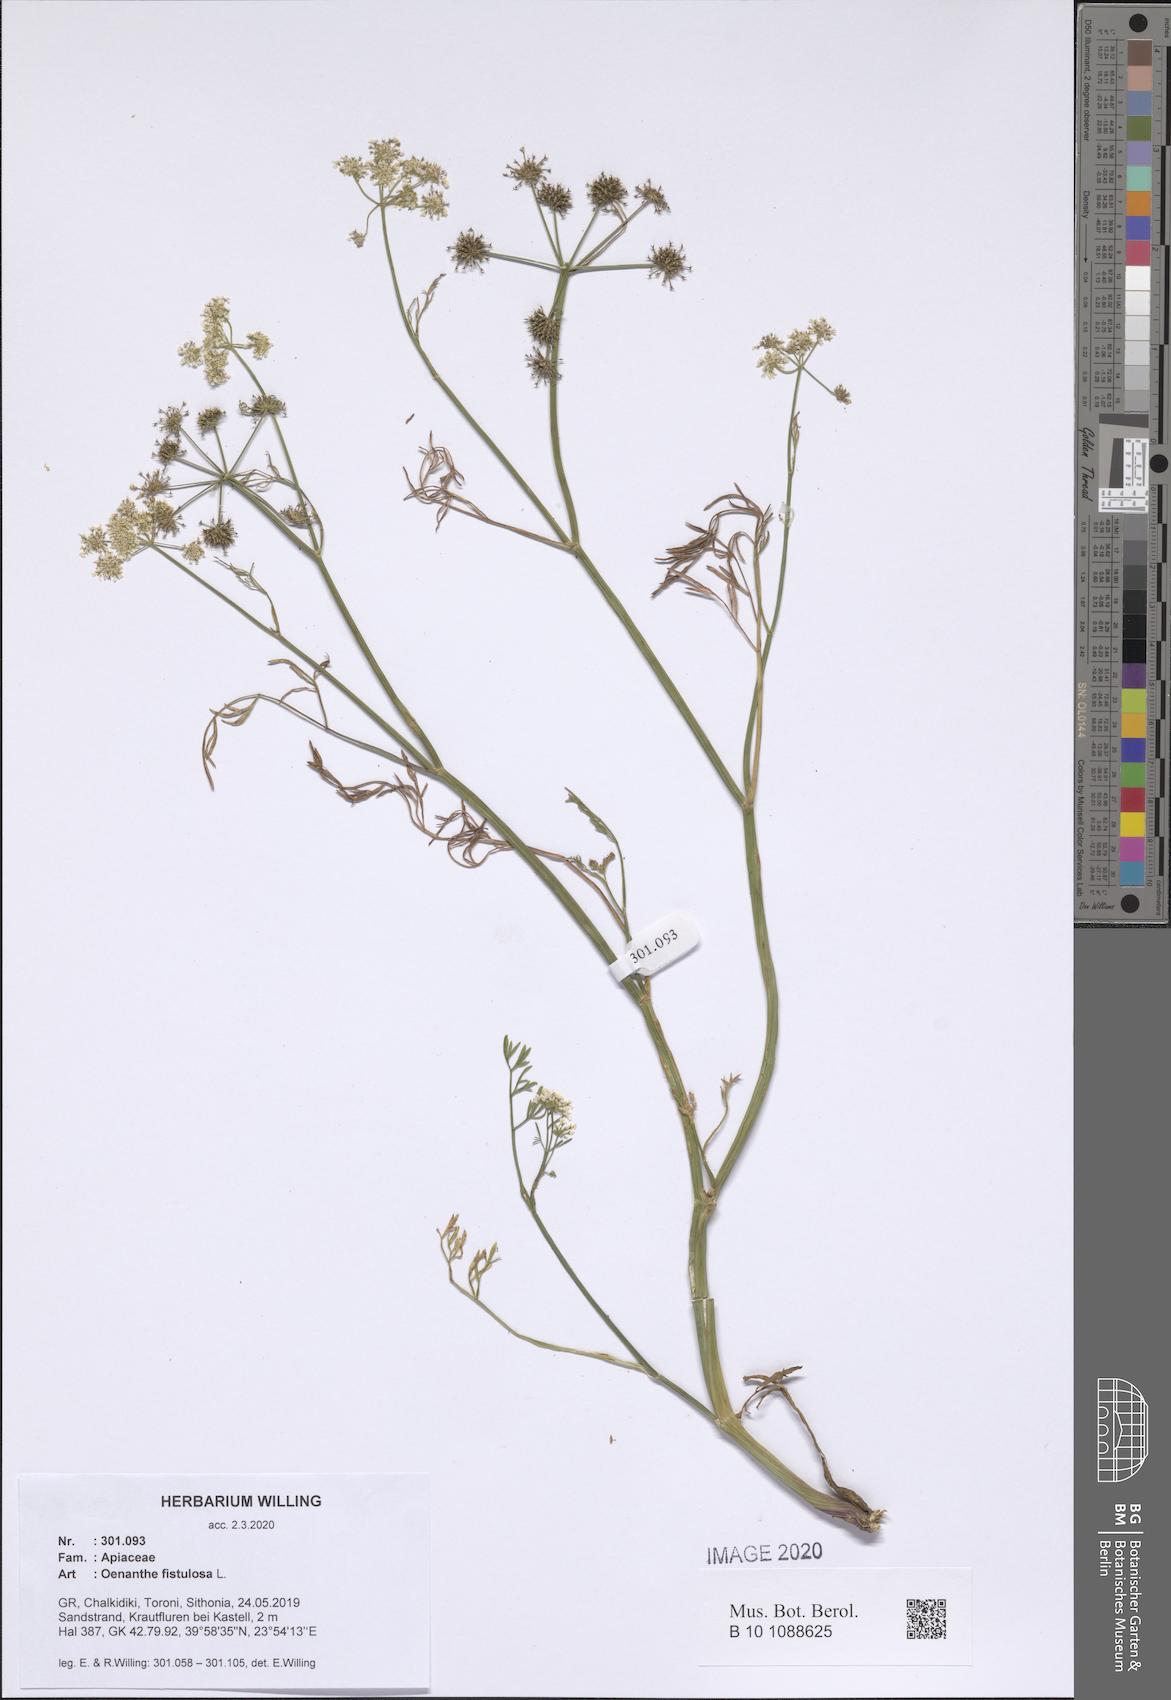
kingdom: Plantae
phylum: Tracheophyta
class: Magnoliopsida
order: Apiales
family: Apiaceae
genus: Oenanthe
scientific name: Oenanthe fistulosa
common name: Tubular water-dropwort
